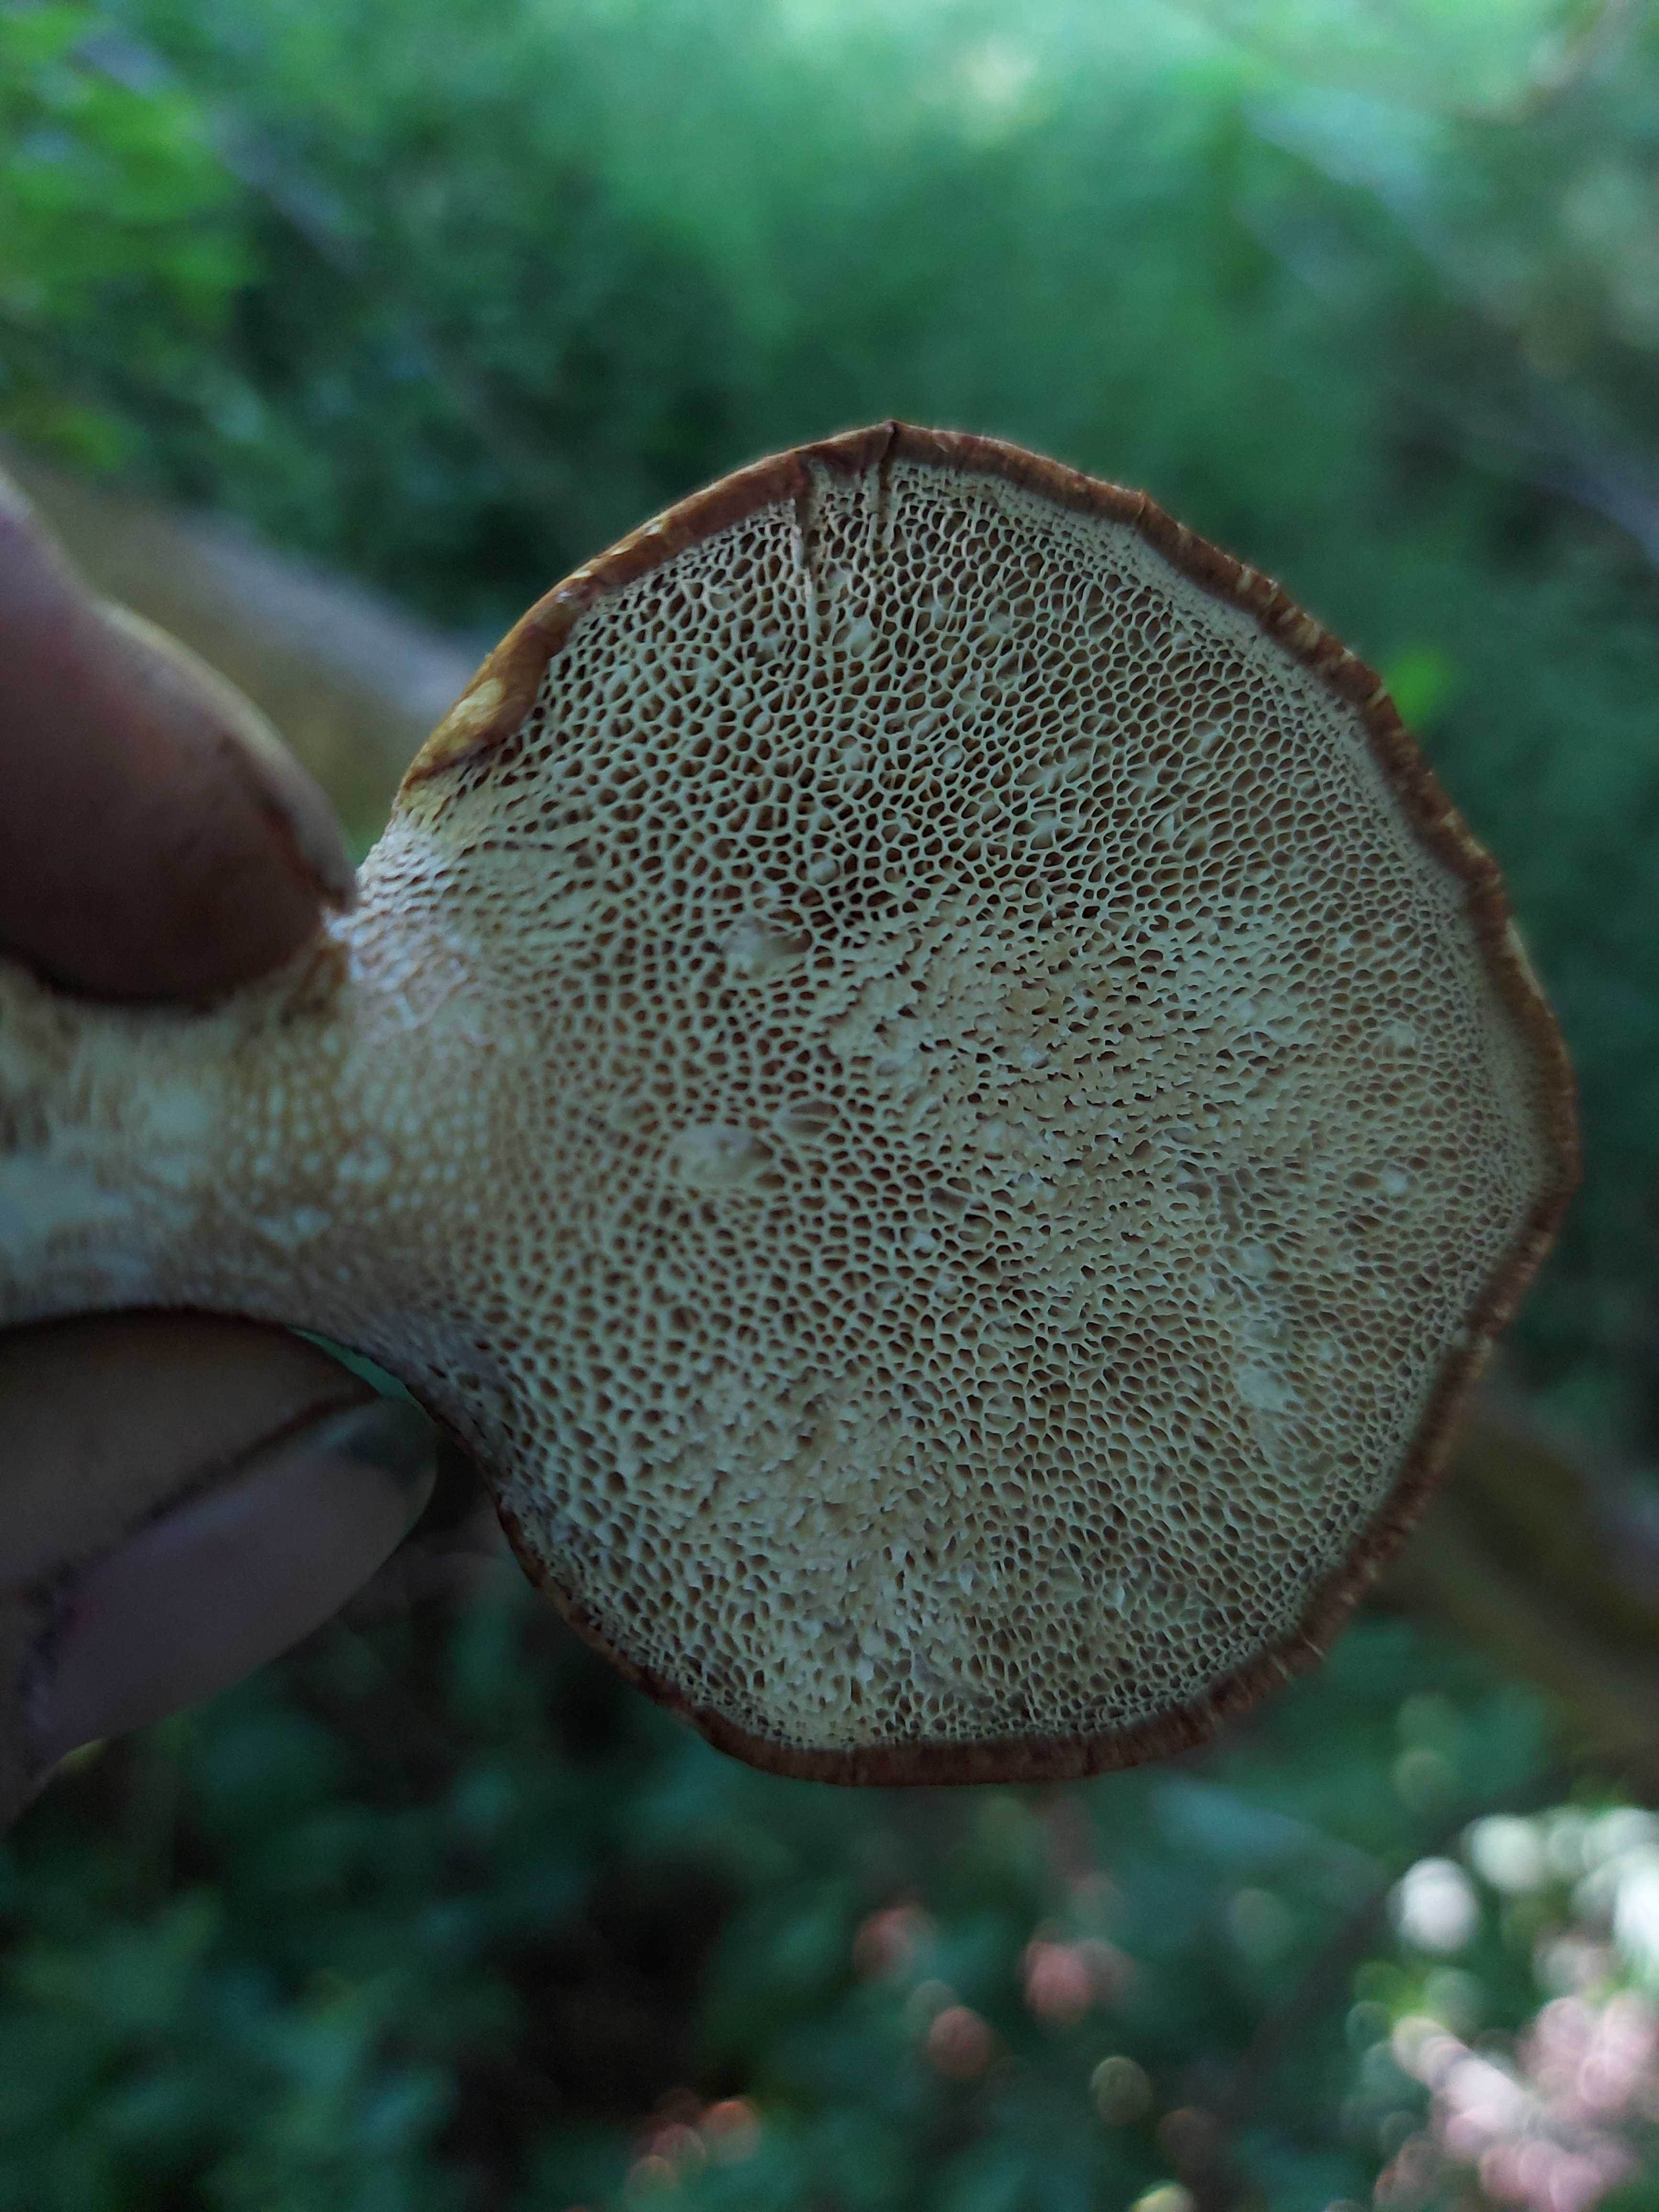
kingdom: Fungi
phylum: Basidiomycota
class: Agaricomycetes
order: Polyporales
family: Polyporaceae
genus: Cerioporus
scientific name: Cerioporus squamosus
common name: skællet stilkporesvamp
